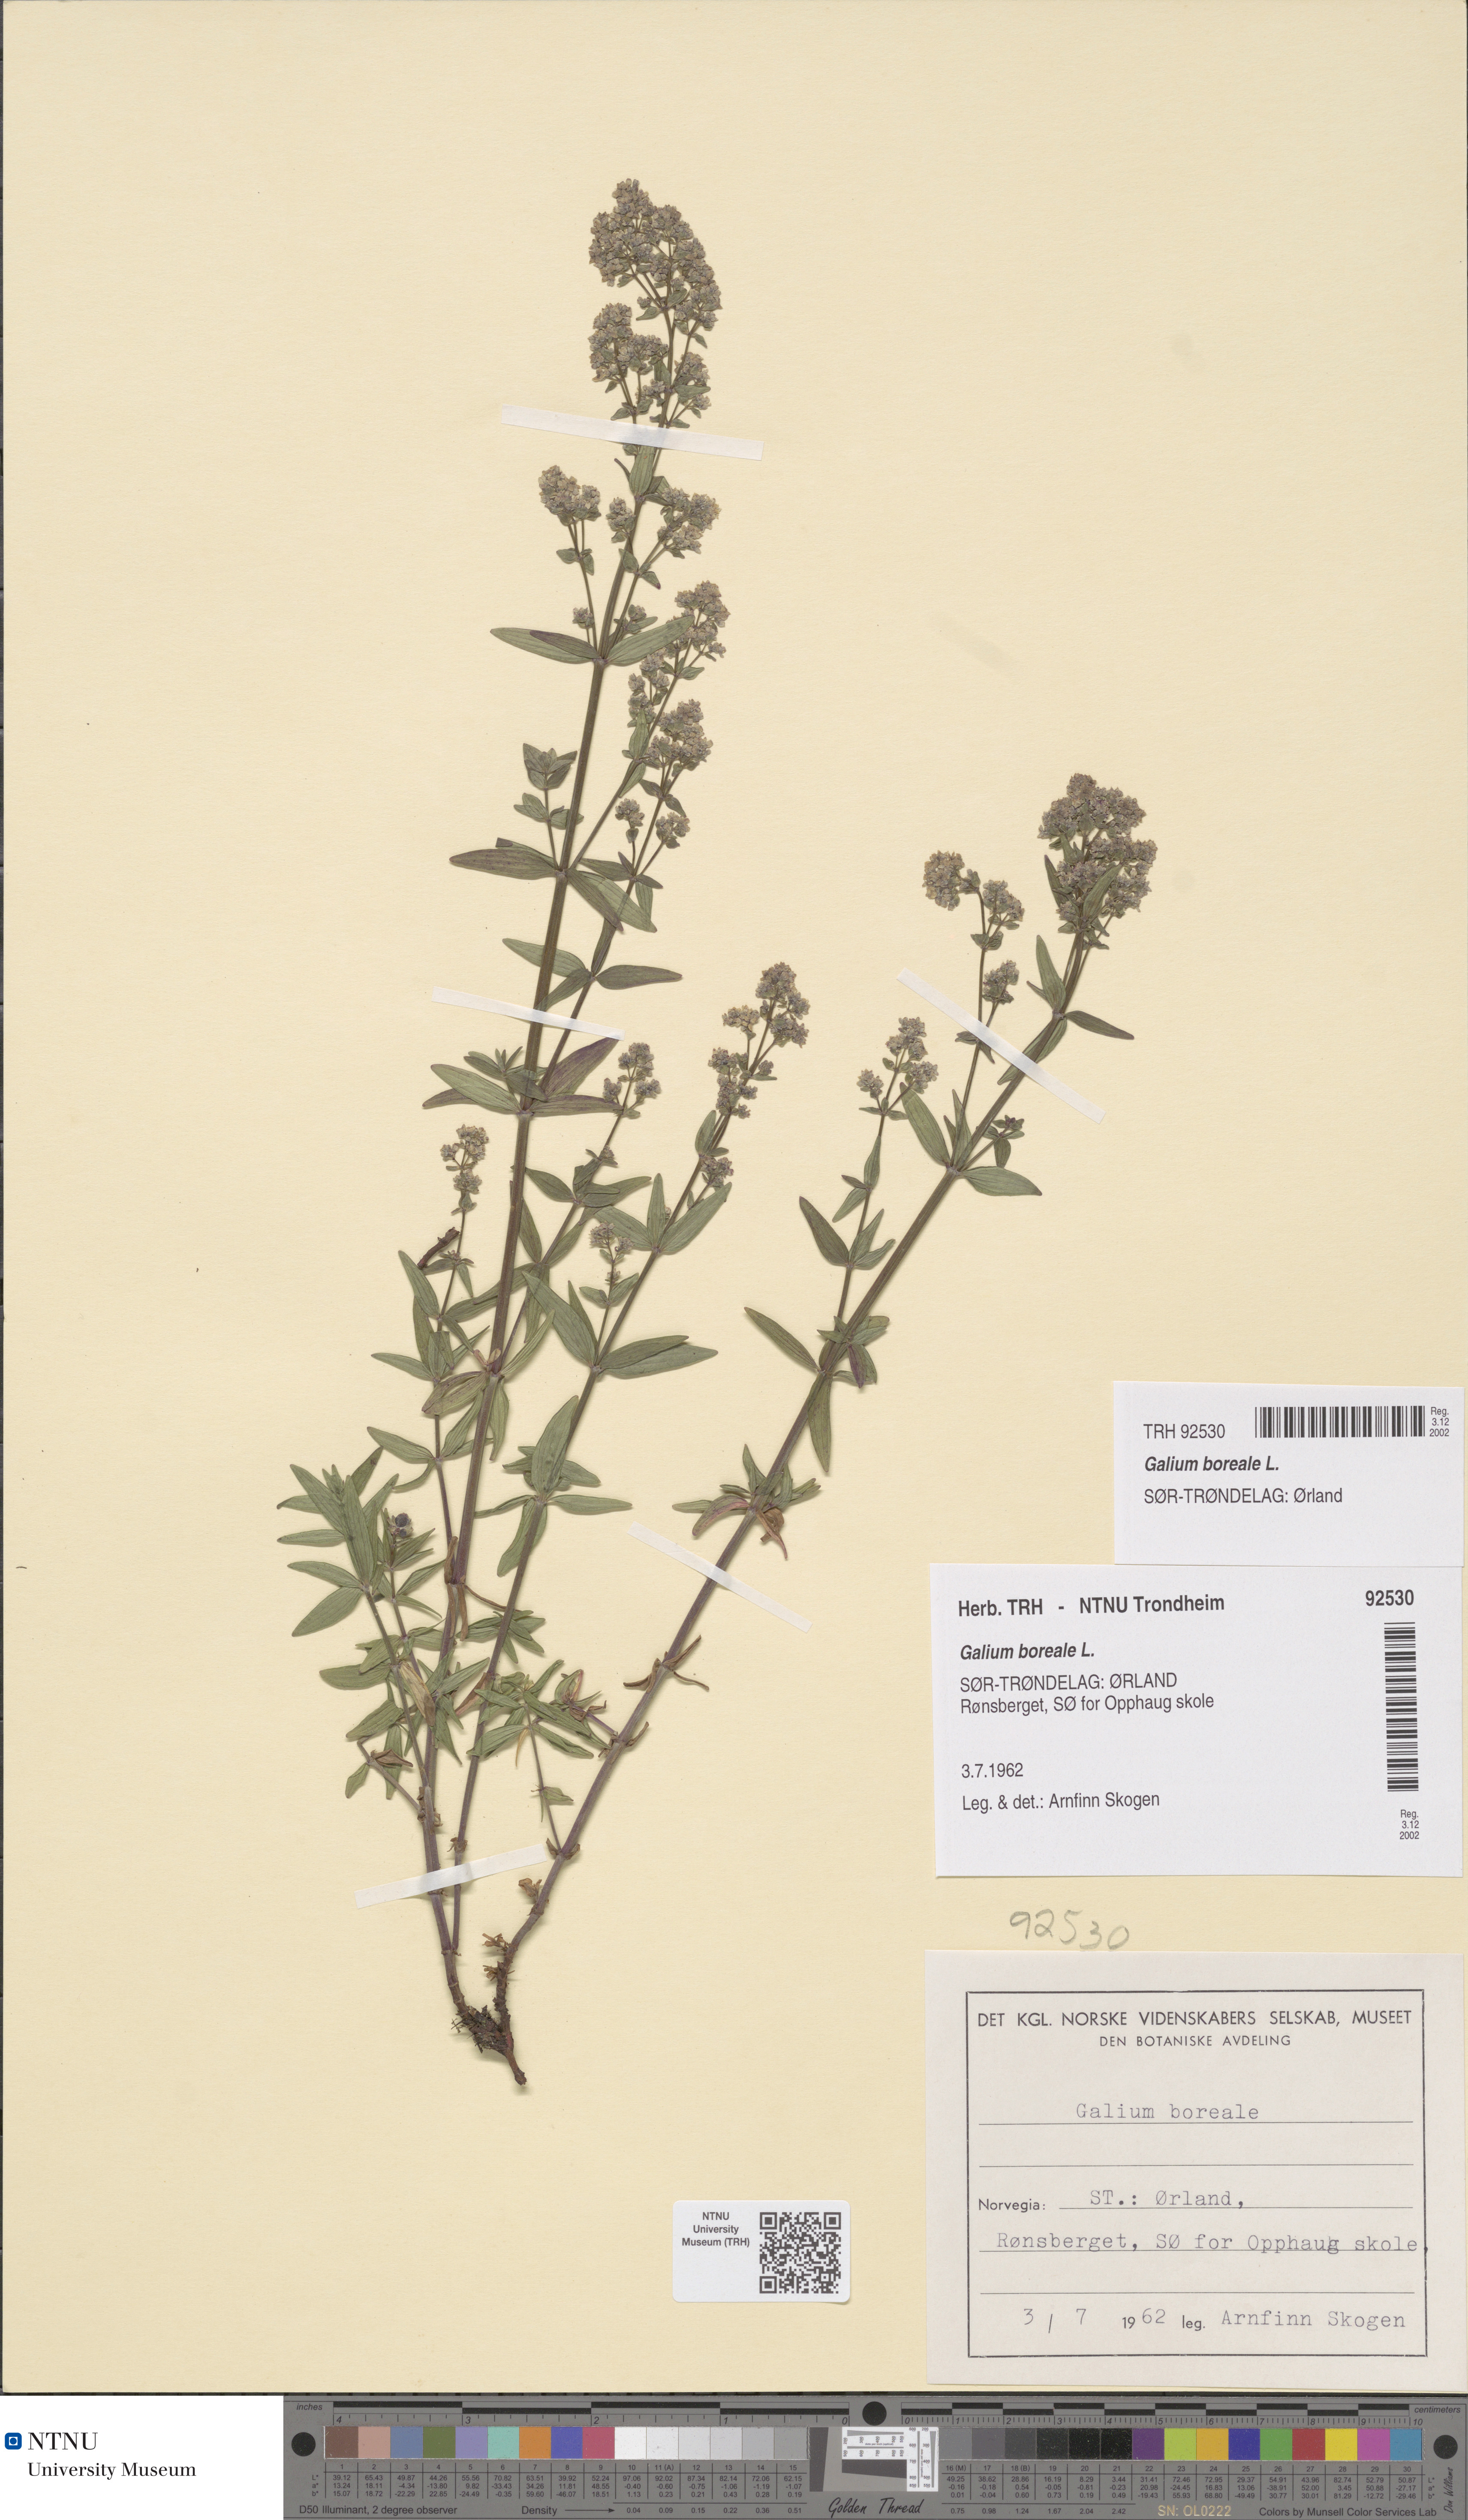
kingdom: Plantae
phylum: Tracheophyta
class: Magnoliopsida
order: Gentianales
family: Rubiaceae
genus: Galium
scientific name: Galium boreale
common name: Northern bedstraw
